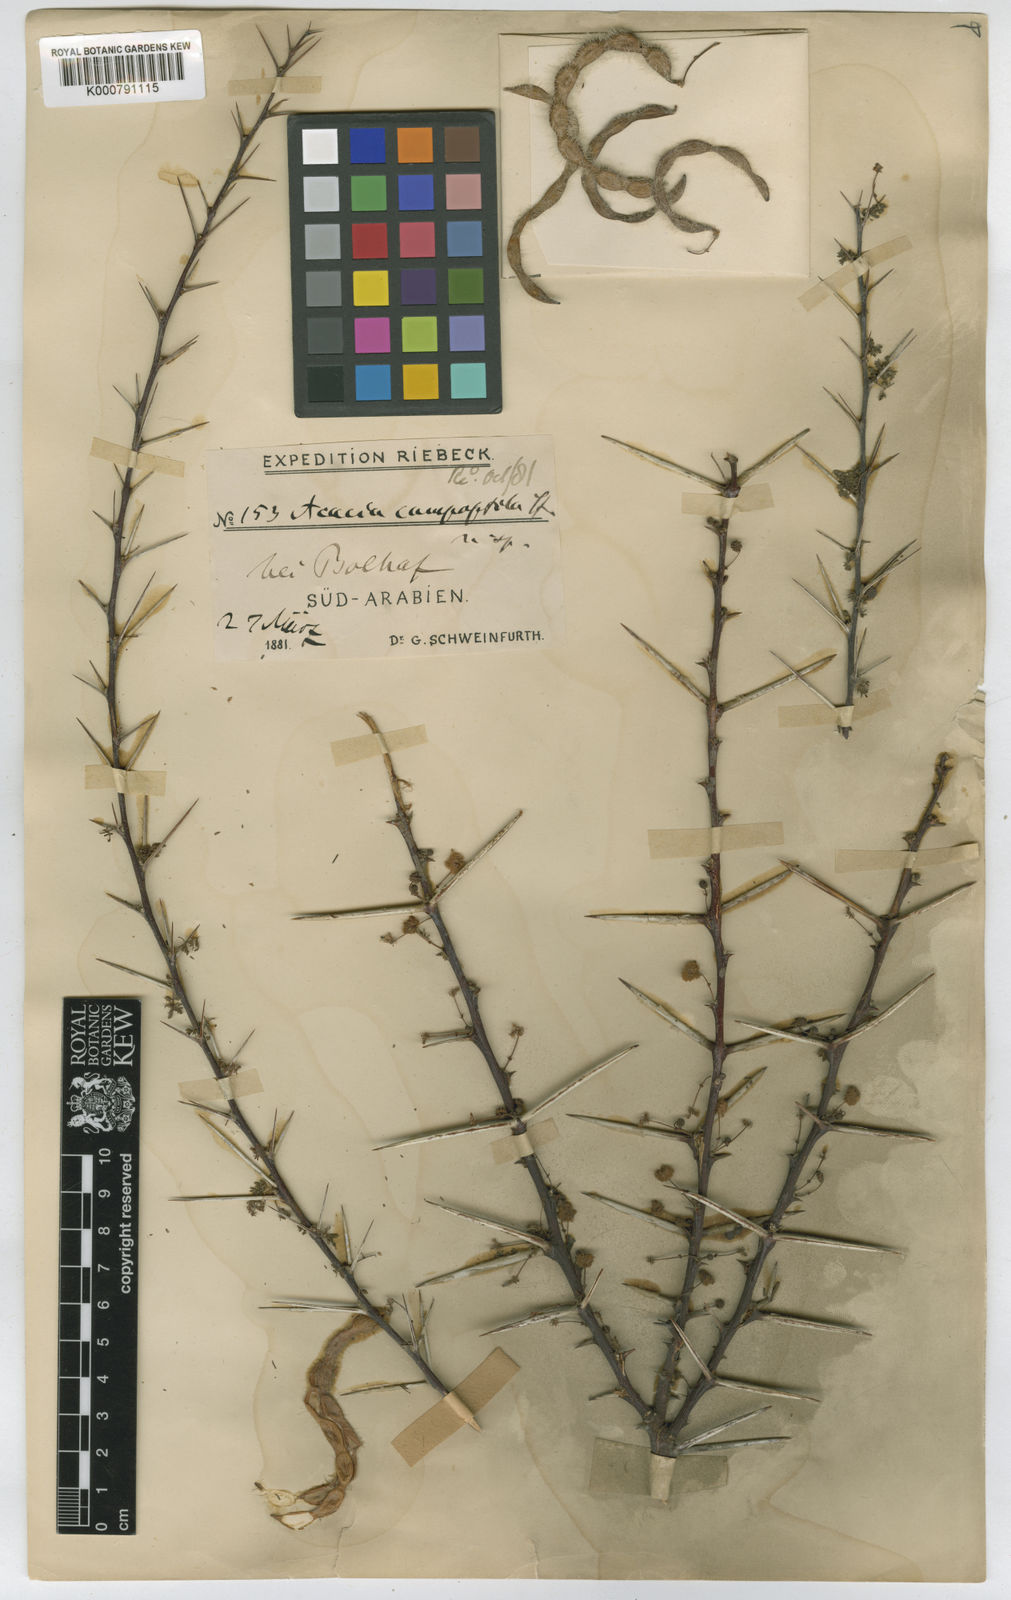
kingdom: Plantae
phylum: Tracheophyta
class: Magnoliopsida
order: Fabales
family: Fabaceae
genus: Vachellia
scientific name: Vachellia tortilis
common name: Umbrella thorn acacia
